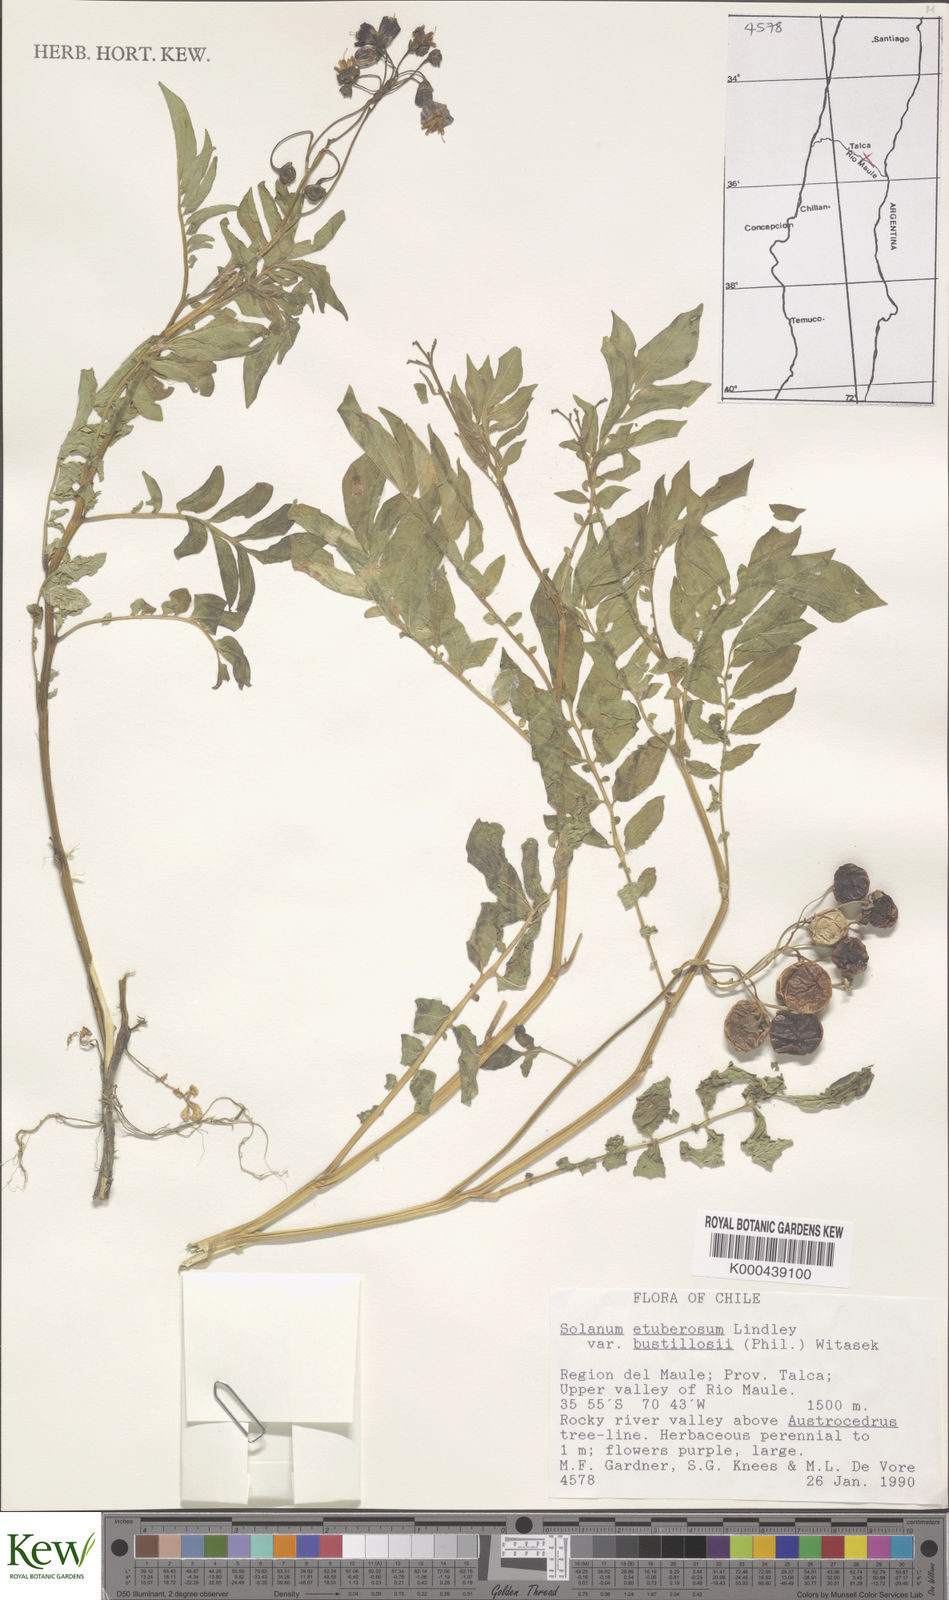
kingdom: Plantae
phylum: Tracheophyta
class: Magnoliopsida
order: Solanales
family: Solanaceae
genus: Solanum
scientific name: Solanum etuberosum
